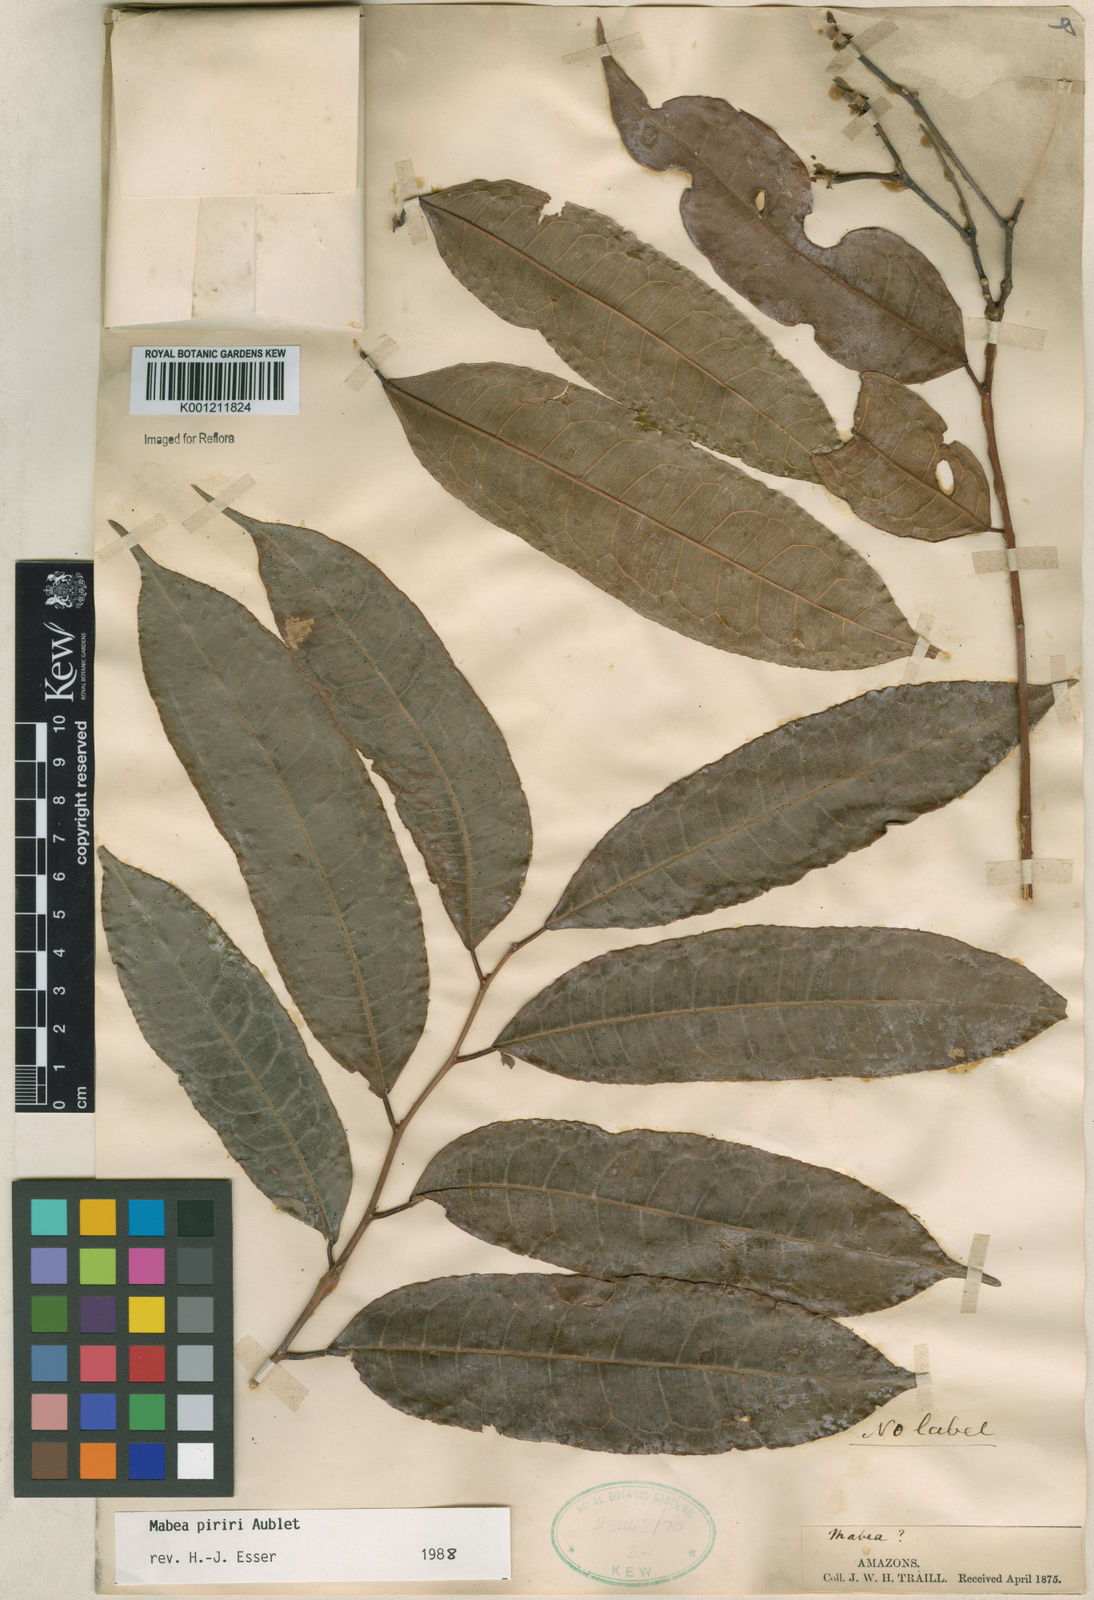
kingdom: Plantae
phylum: Tracheophyta
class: Magnoliopsida
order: Malpighiales
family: Euphorbiaceae
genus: Mabea
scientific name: Mabea piriri
